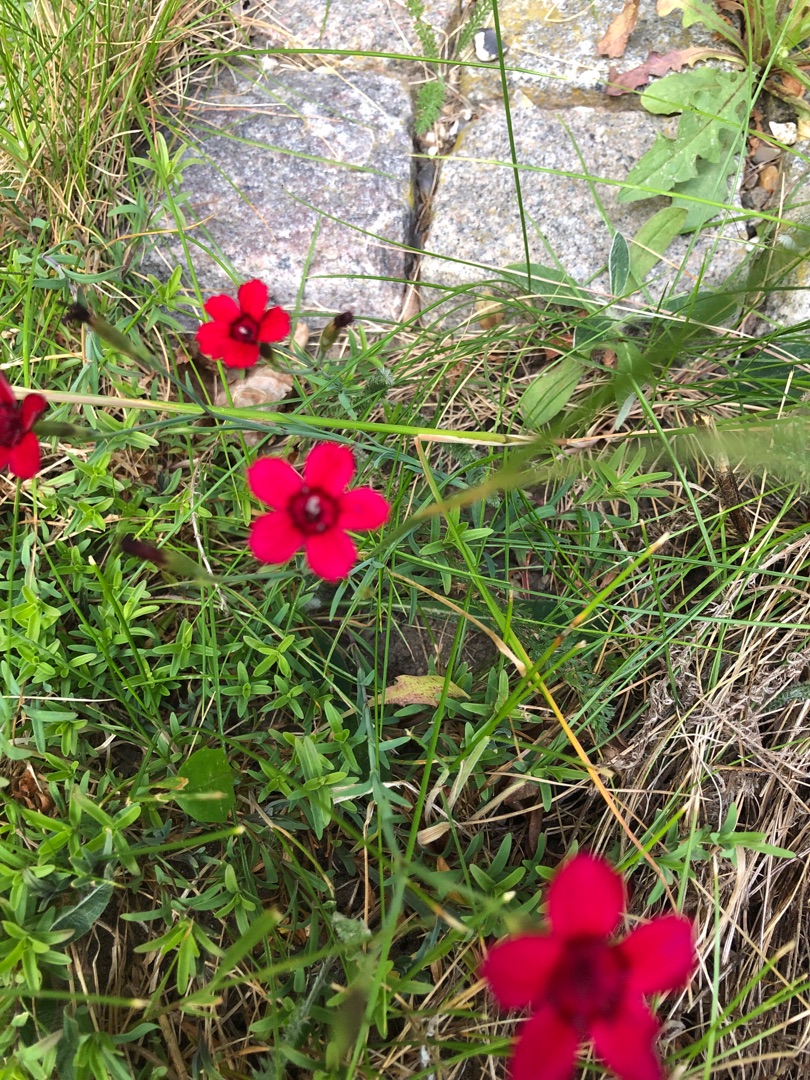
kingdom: Plantae
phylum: Tracheophyta
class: Magnoliopsida
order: Caryophyllales
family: Caryophyllaceae
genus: Dianthus
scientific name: Dianthus deltoides
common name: Bakke-nellike
